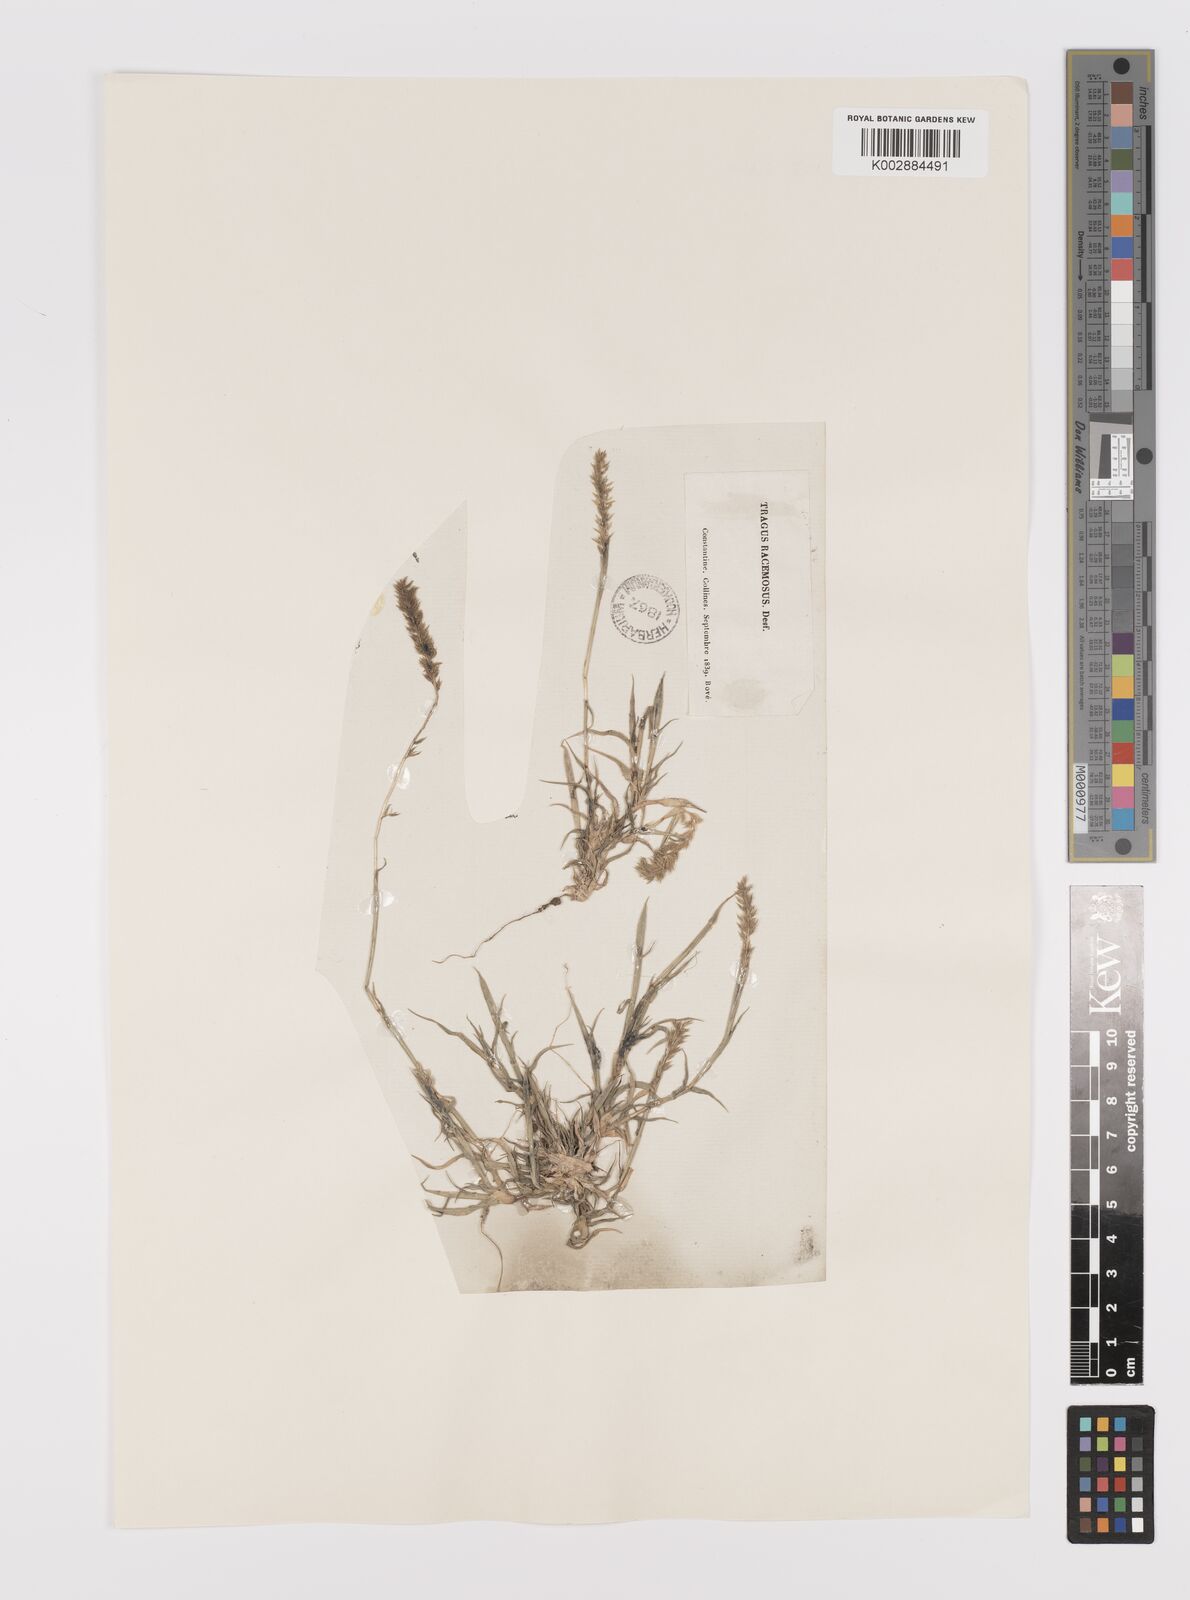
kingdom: Plantae
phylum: Tracheophyta
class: Liliopsida
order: Poales
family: Poaceae
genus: Tragus
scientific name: Tragus racemosus
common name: European bur-grass
